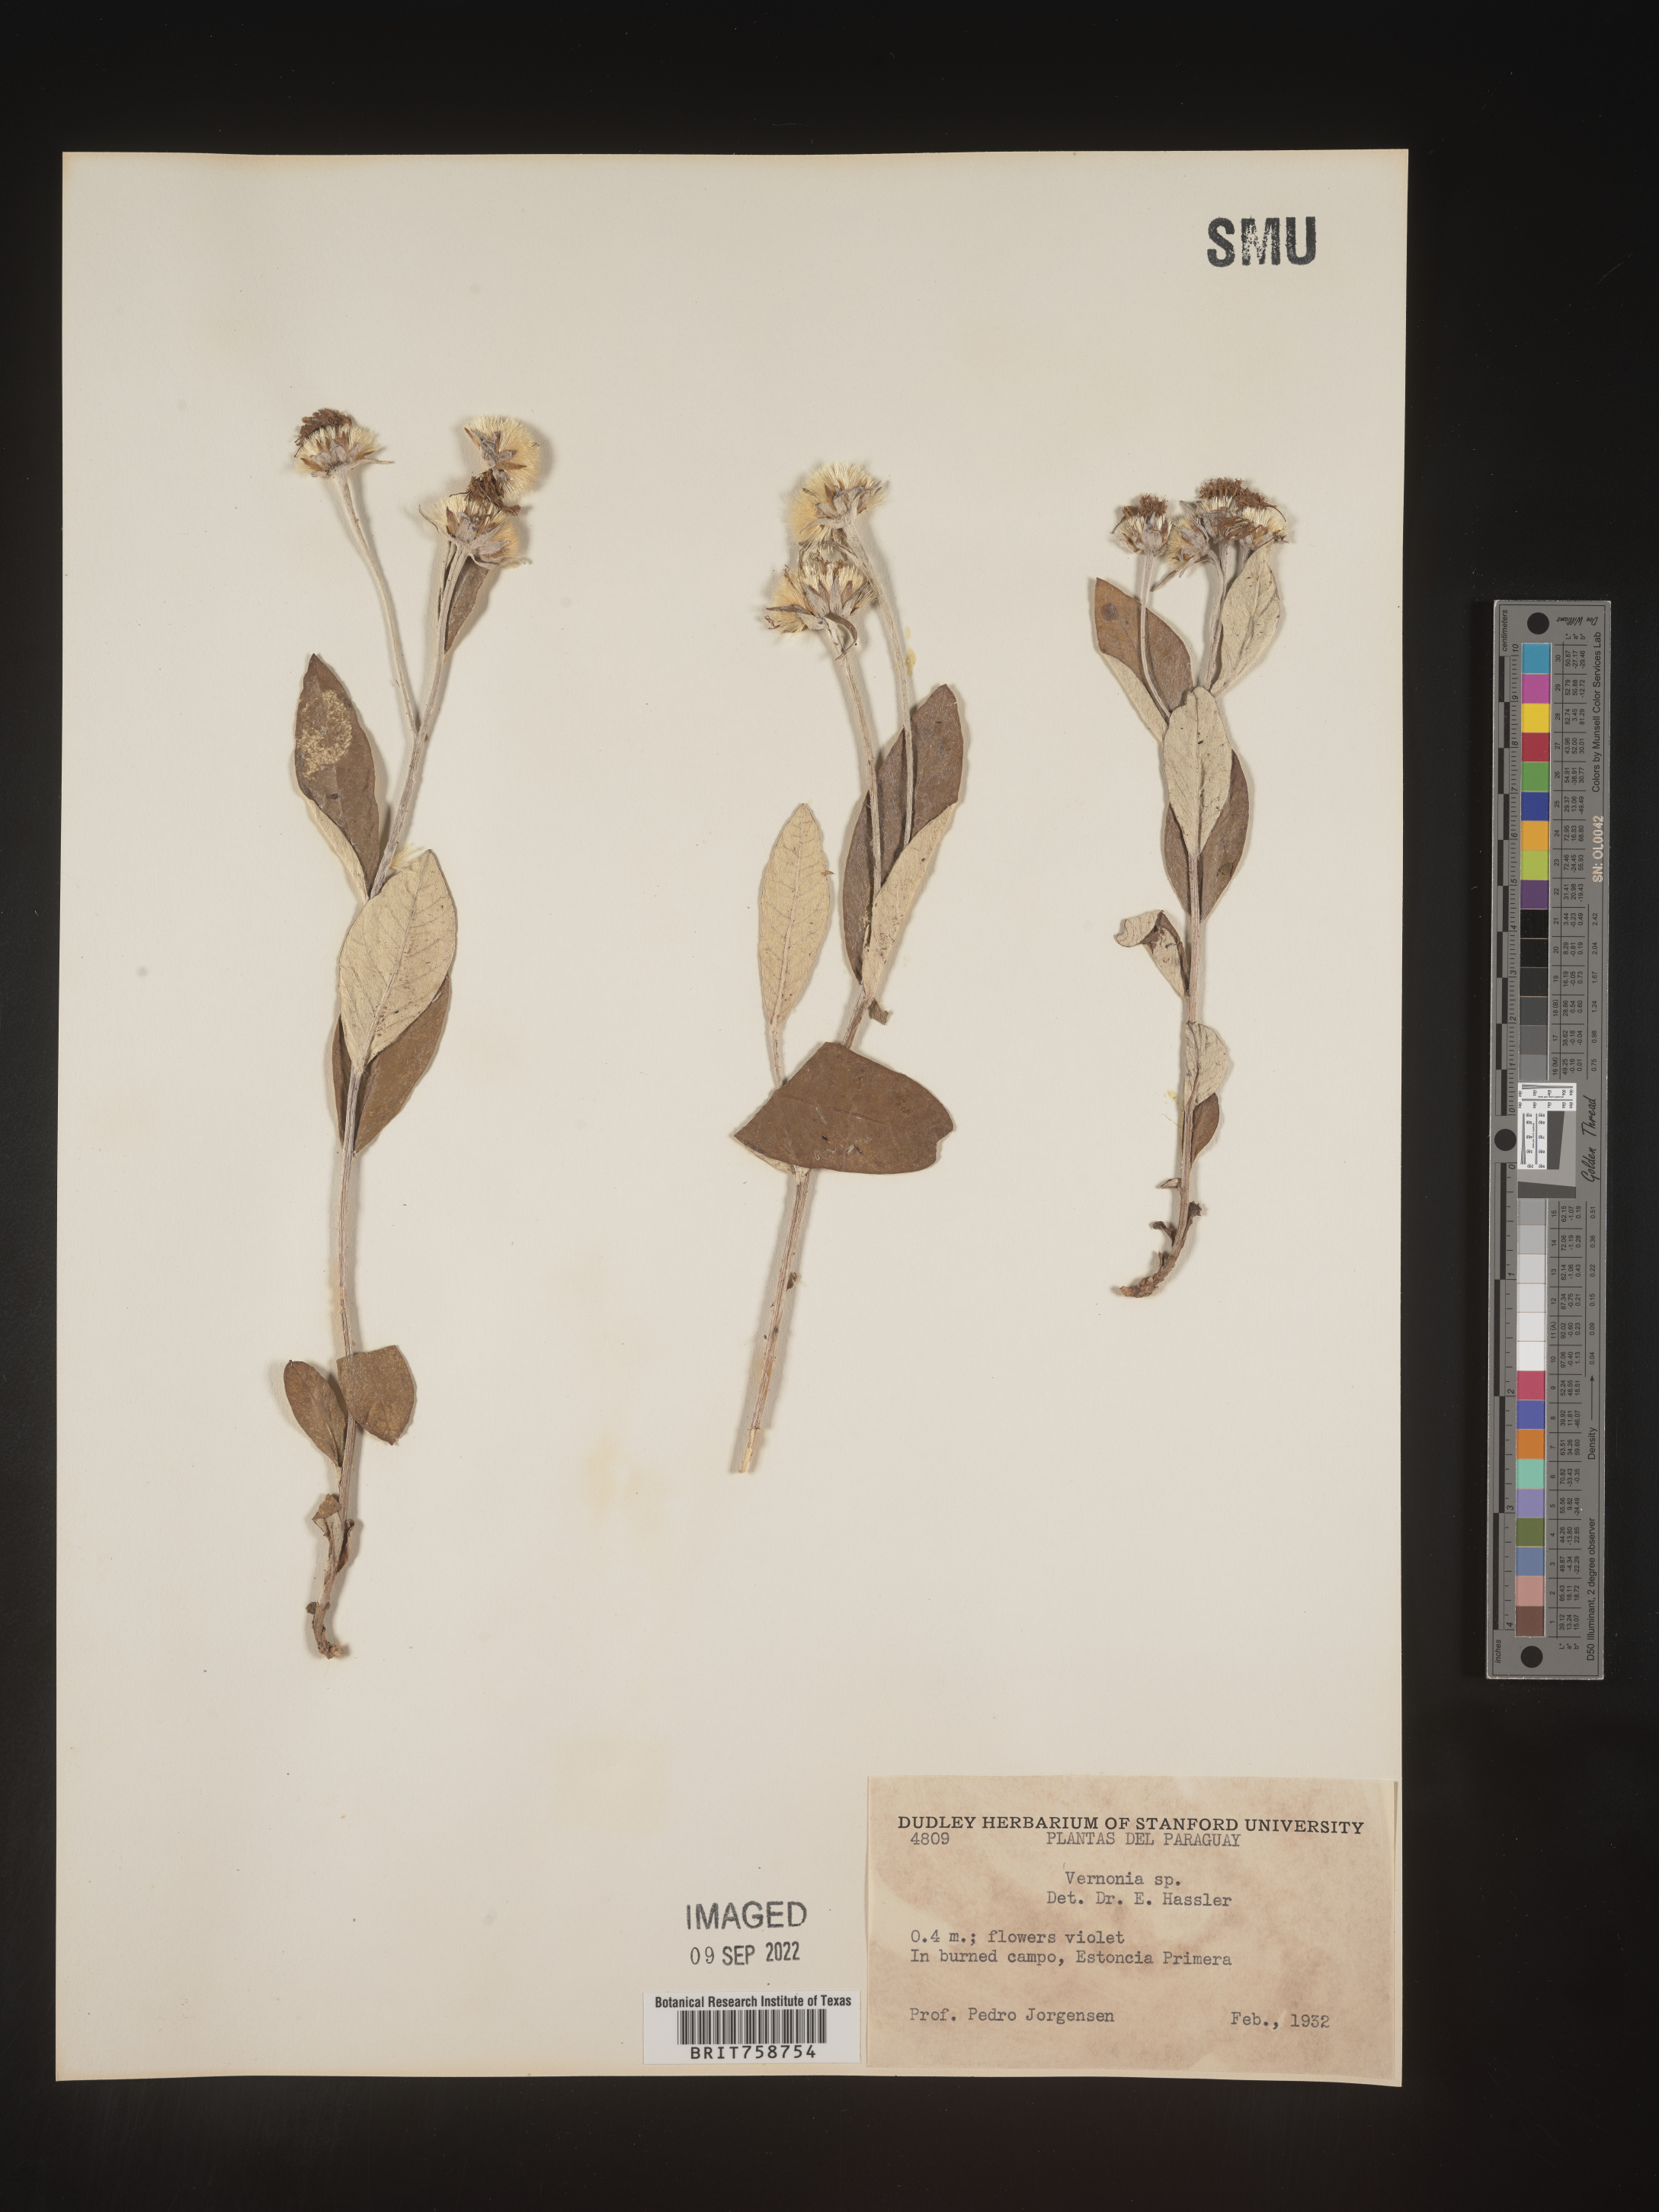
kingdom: Plantae
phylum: Tracheophyta
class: Magnoliopsida
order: Asterales
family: Asteraceae
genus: Vernonia
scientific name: Vernonia
